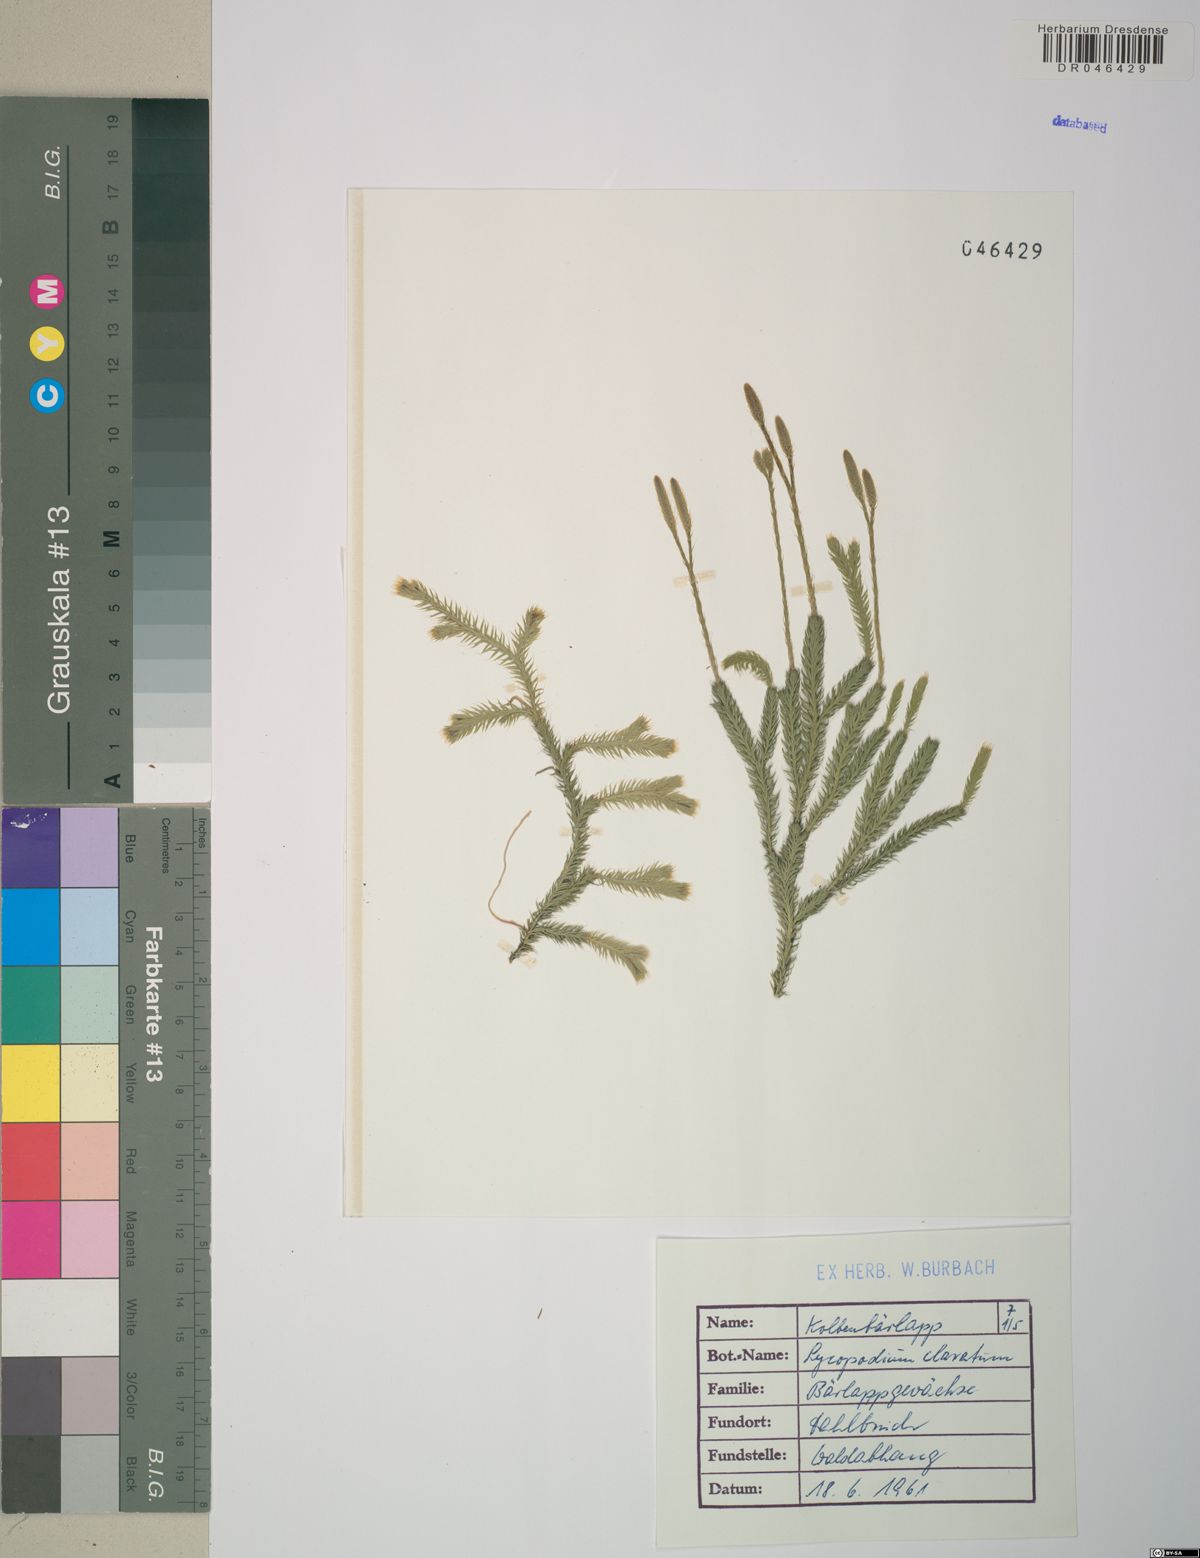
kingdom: Plantae
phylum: Tracheophyta
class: Lycopodiopsida
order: Lycopodiales
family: Lycopodiaceae
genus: Lycopodium
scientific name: Lycopodium clavatum
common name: Stag's-horn clubmoss
